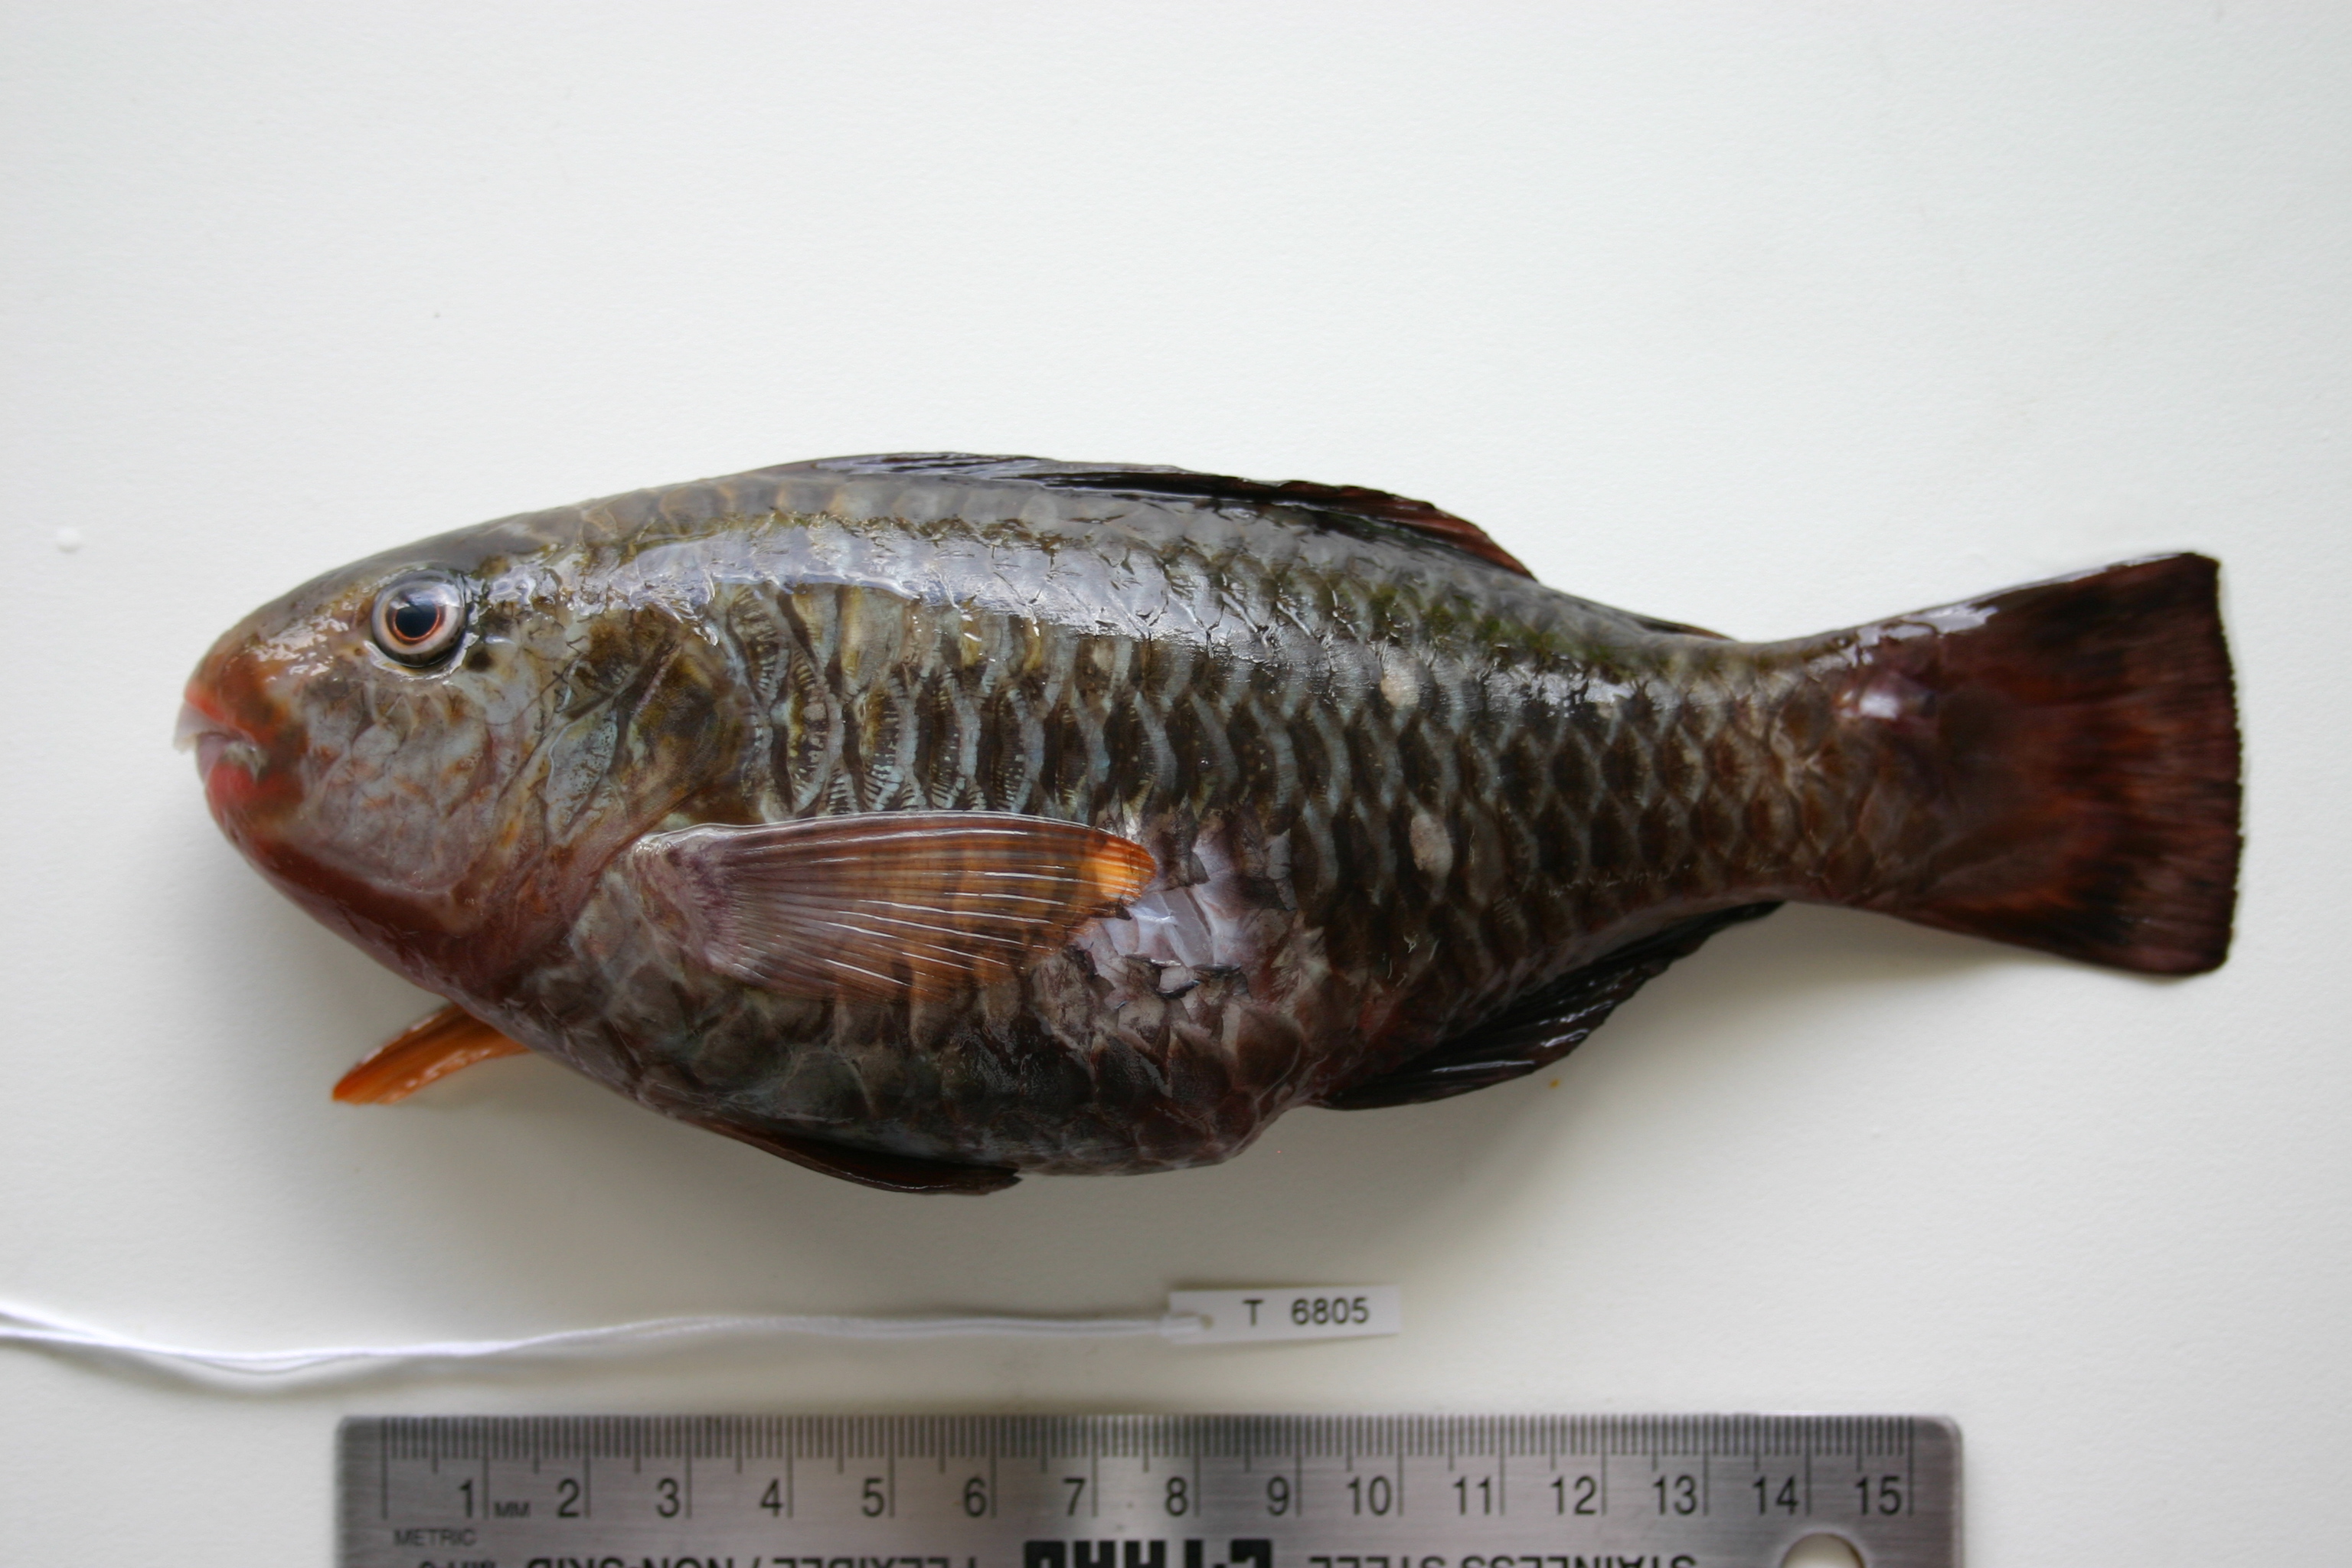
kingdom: Animalia
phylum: Chordata
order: Perciformes
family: Scaridae
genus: Chlorurus
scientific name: Chlorurus sordidus
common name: Bullethead parrotfish
